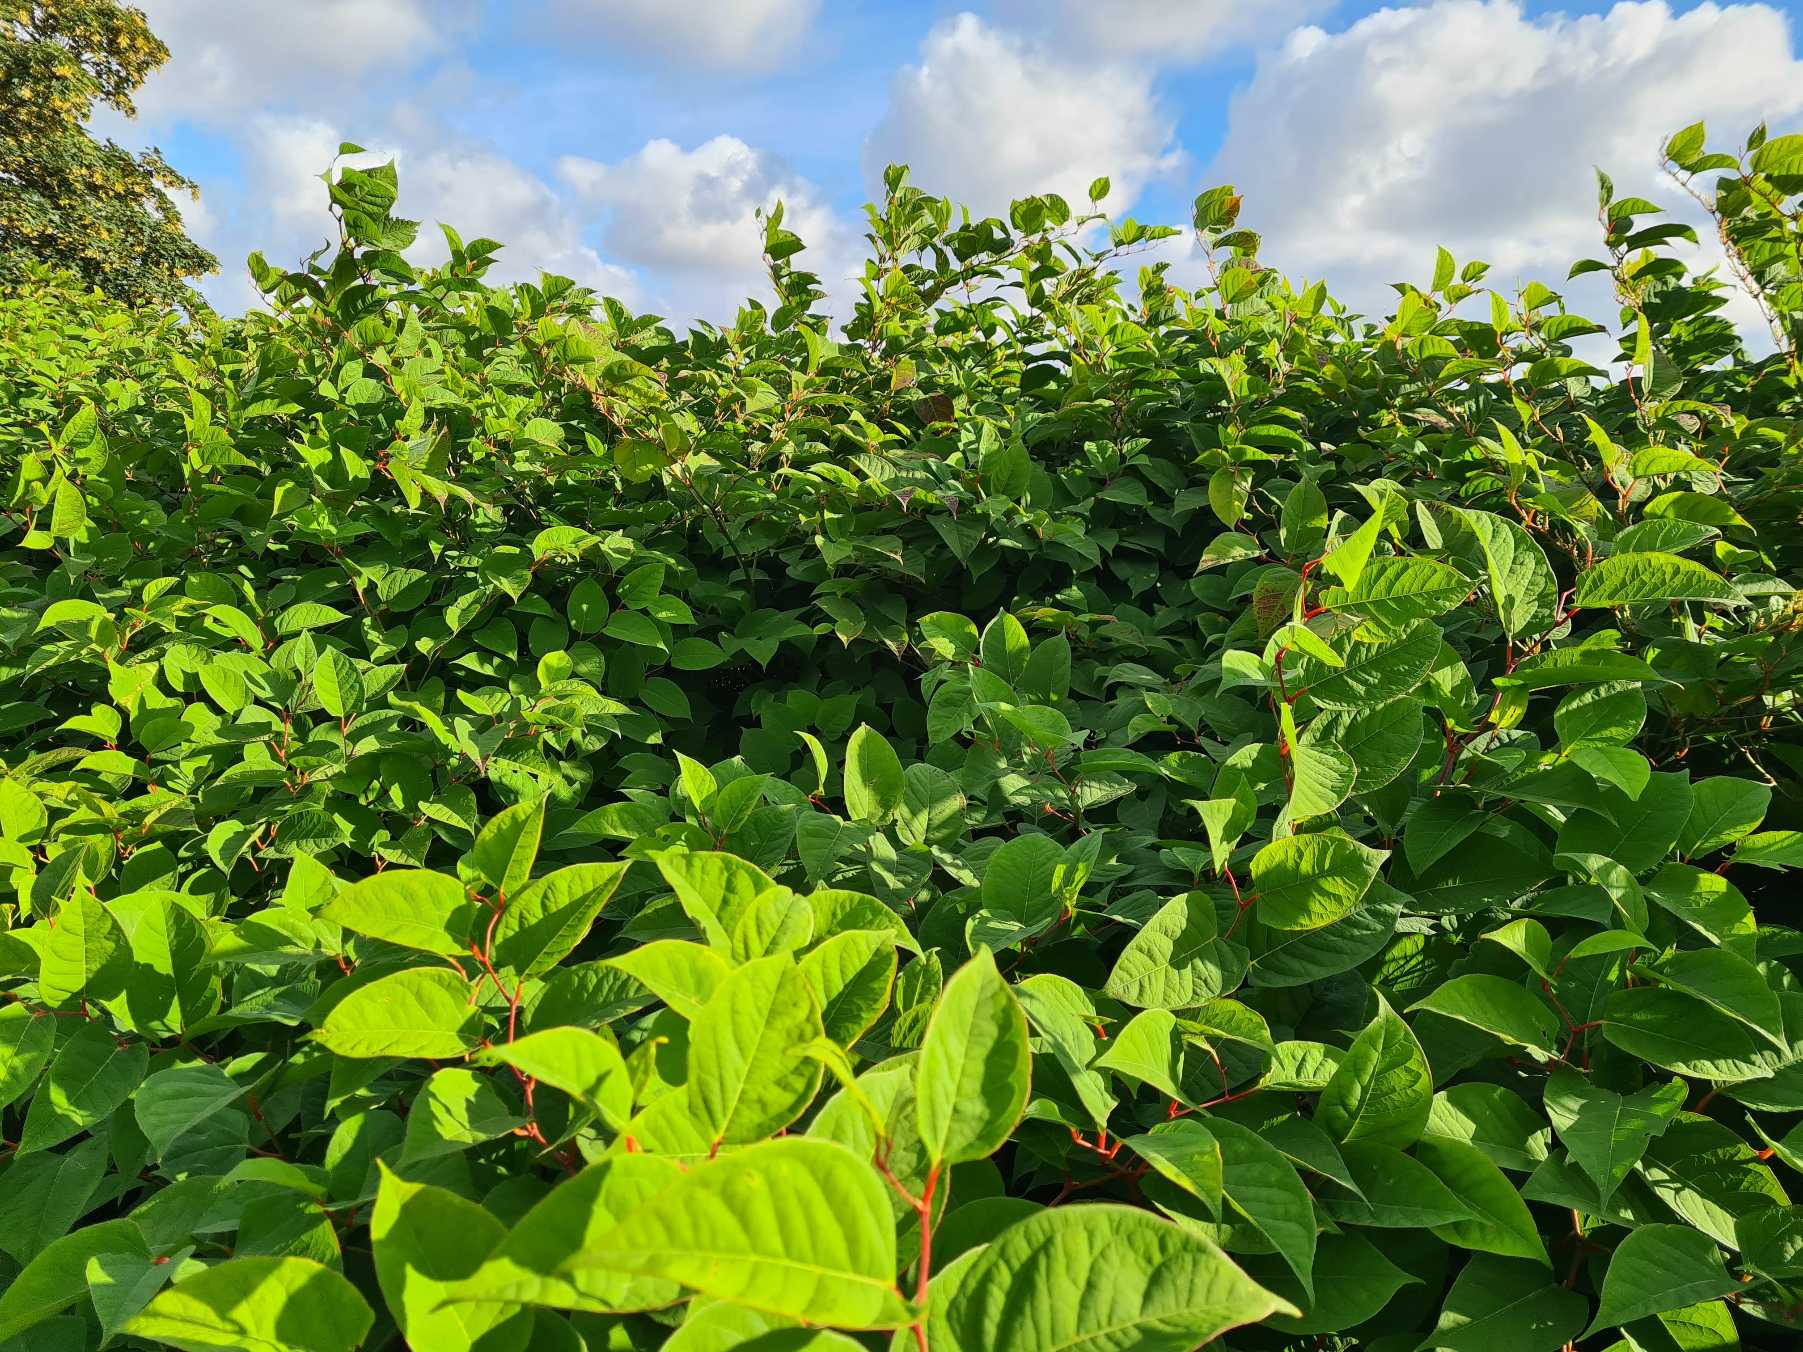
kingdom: Plantae
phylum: Tracheophyta
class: Magnoliopsida
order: Caryophyllales
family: Polygonaceae
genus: Reynoutria
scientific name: Reynoutria japonica
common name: Japan-pileurt
